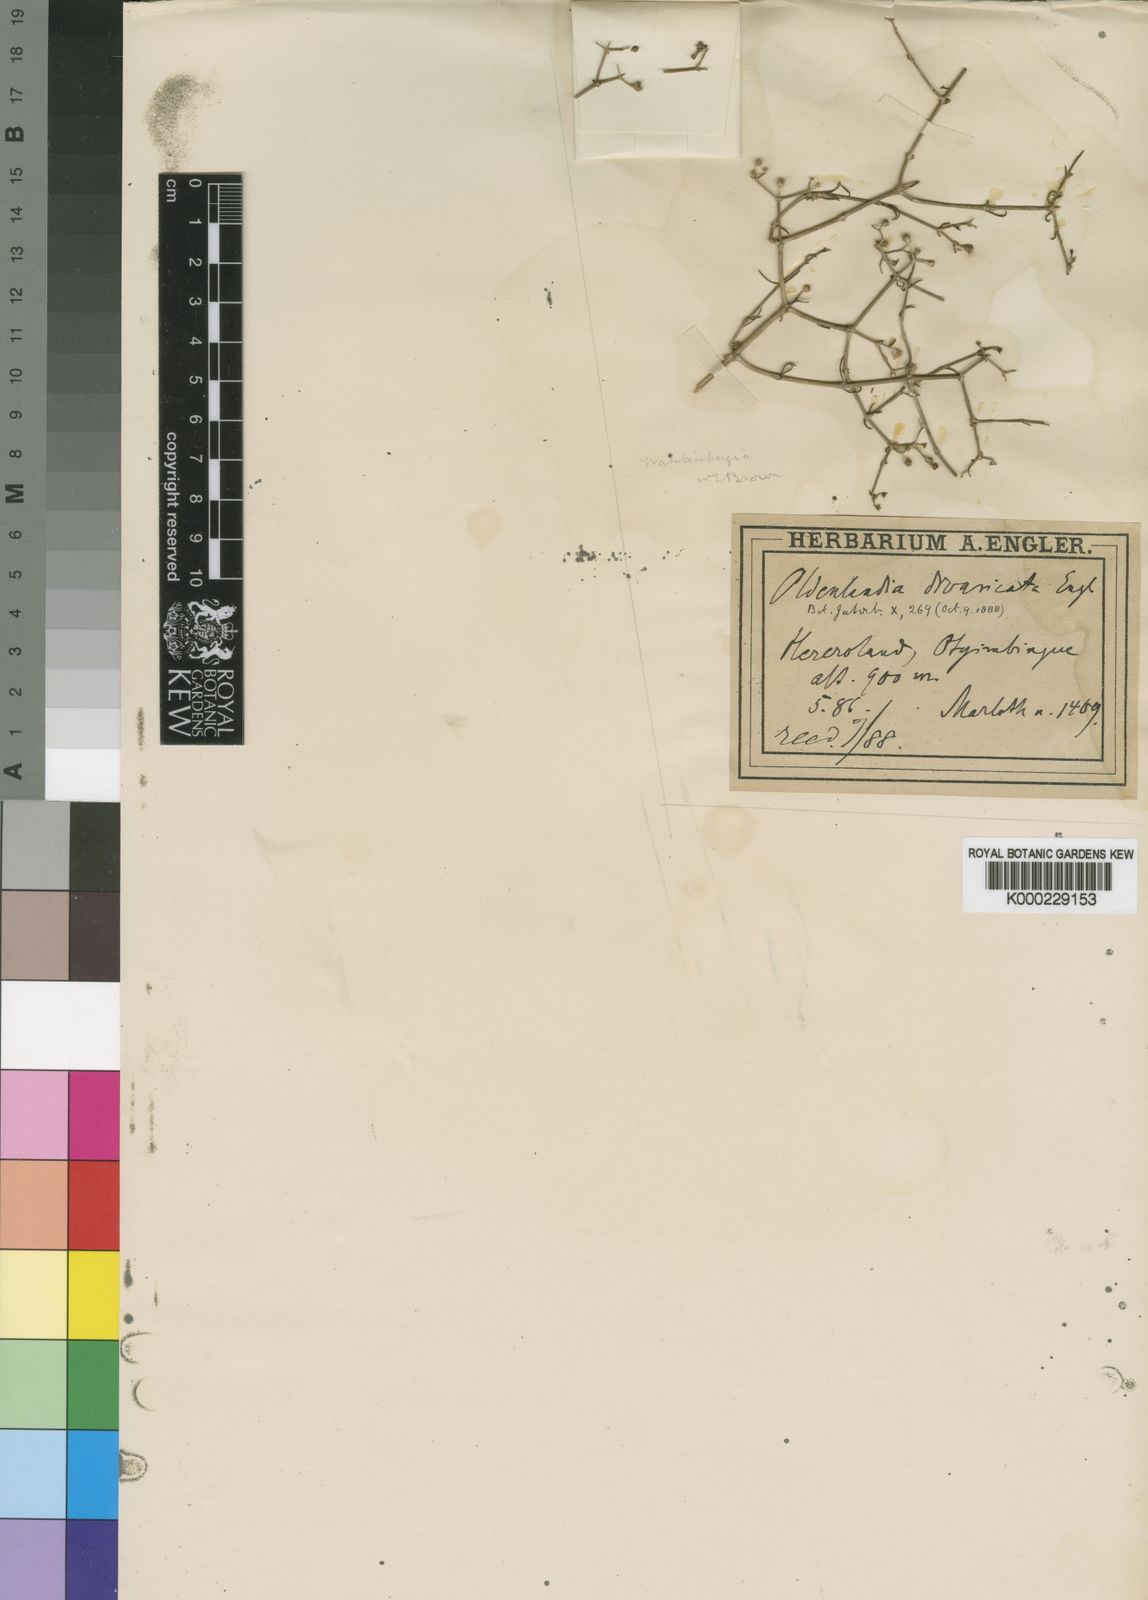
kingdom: Plantae
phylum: Tracheophyta
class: Magnoliopsida
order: Asterales
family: Campanulaceae
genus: Wahlenbergia
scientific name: Wahlenbergia
